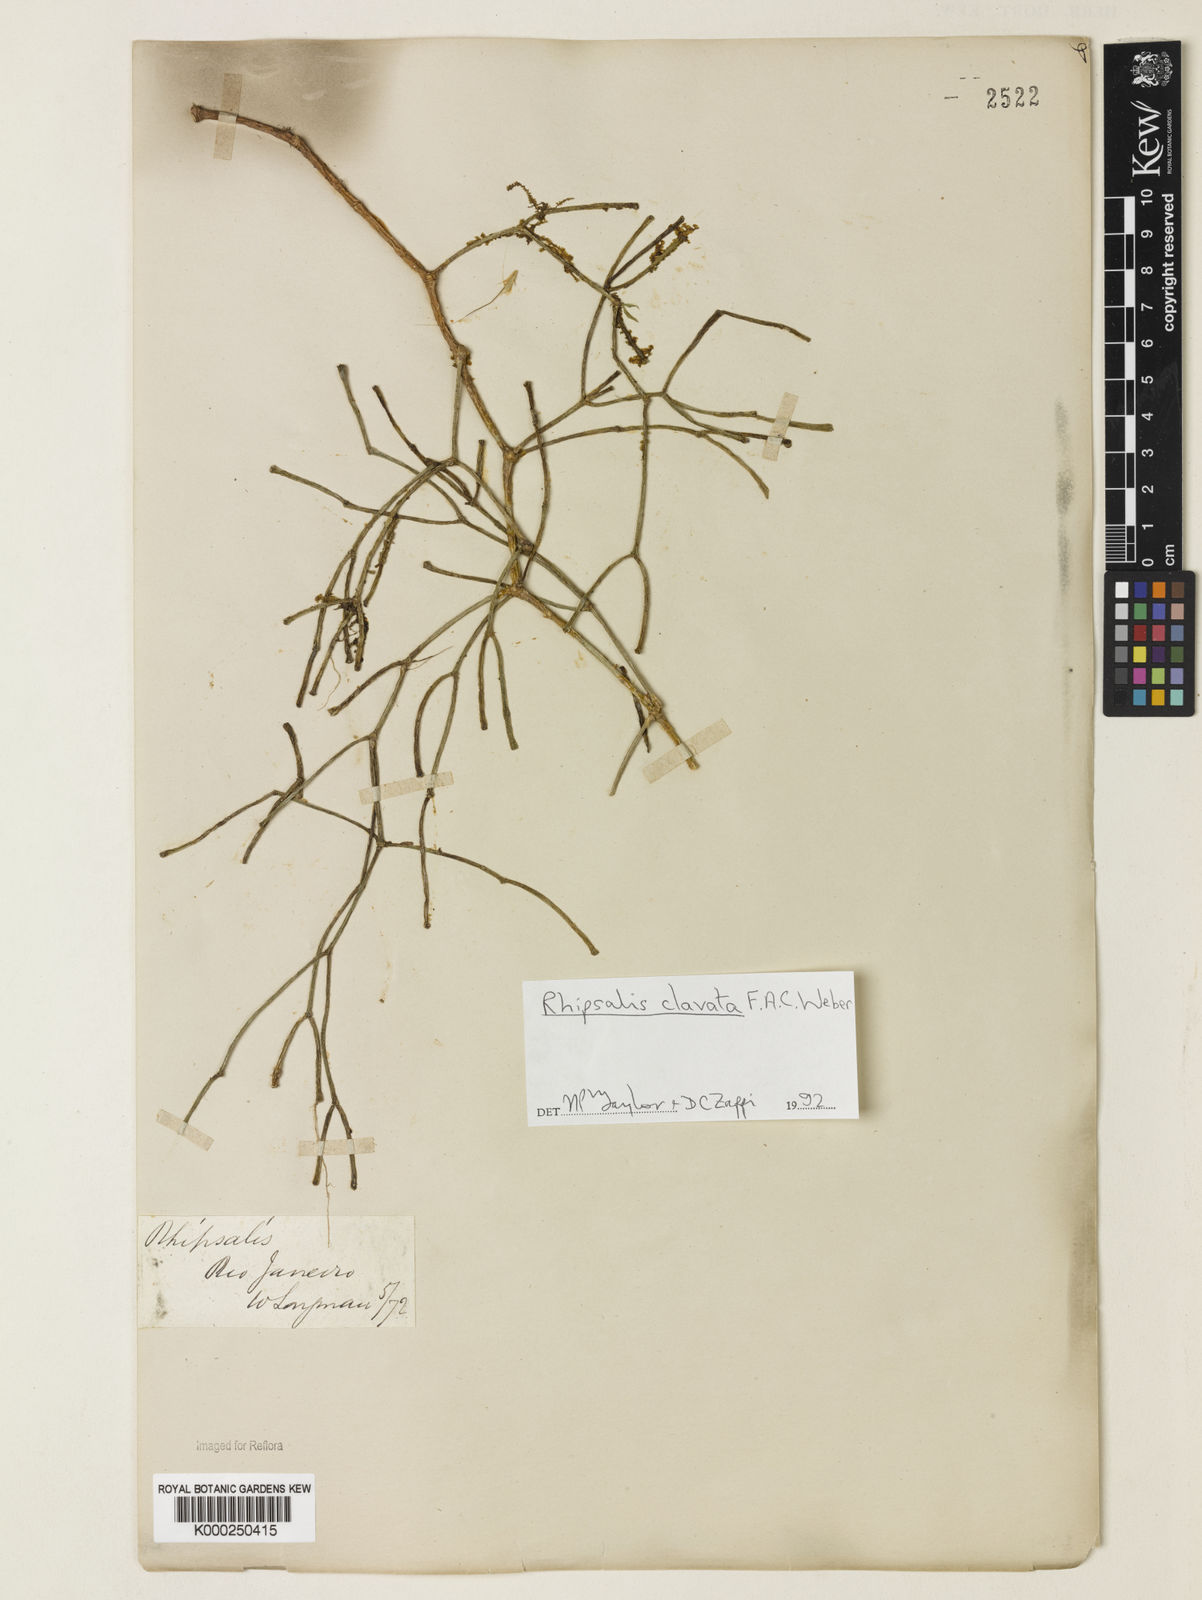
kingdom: Plantae
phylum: Tracheophyta
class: Magnoliopsida
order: Caryophyllales
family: Cactaceae
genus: Rhipsalis
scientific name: Rhipsalis clavata
